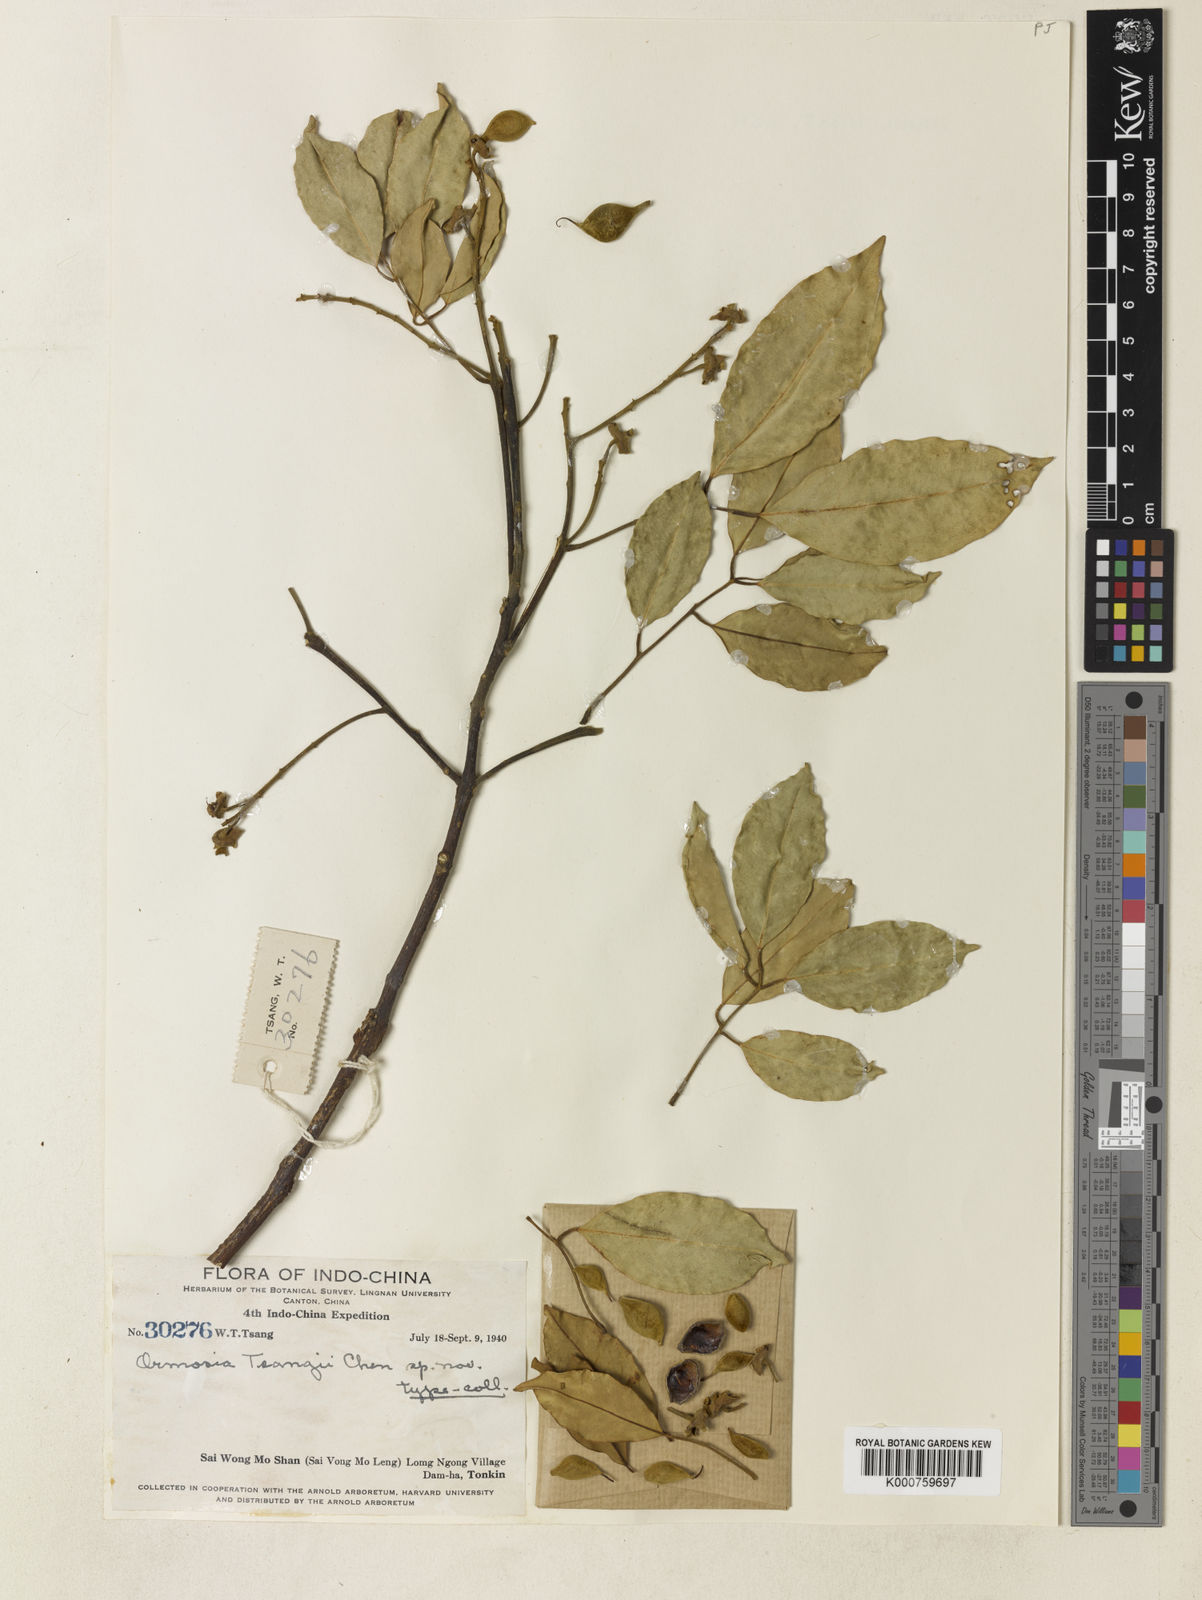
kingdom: Plantae
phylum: Tracheophyta
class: Magnoliopsida
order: Fabales
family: Fabaceae
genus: Ormosia
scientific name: Ormosia tsangii
